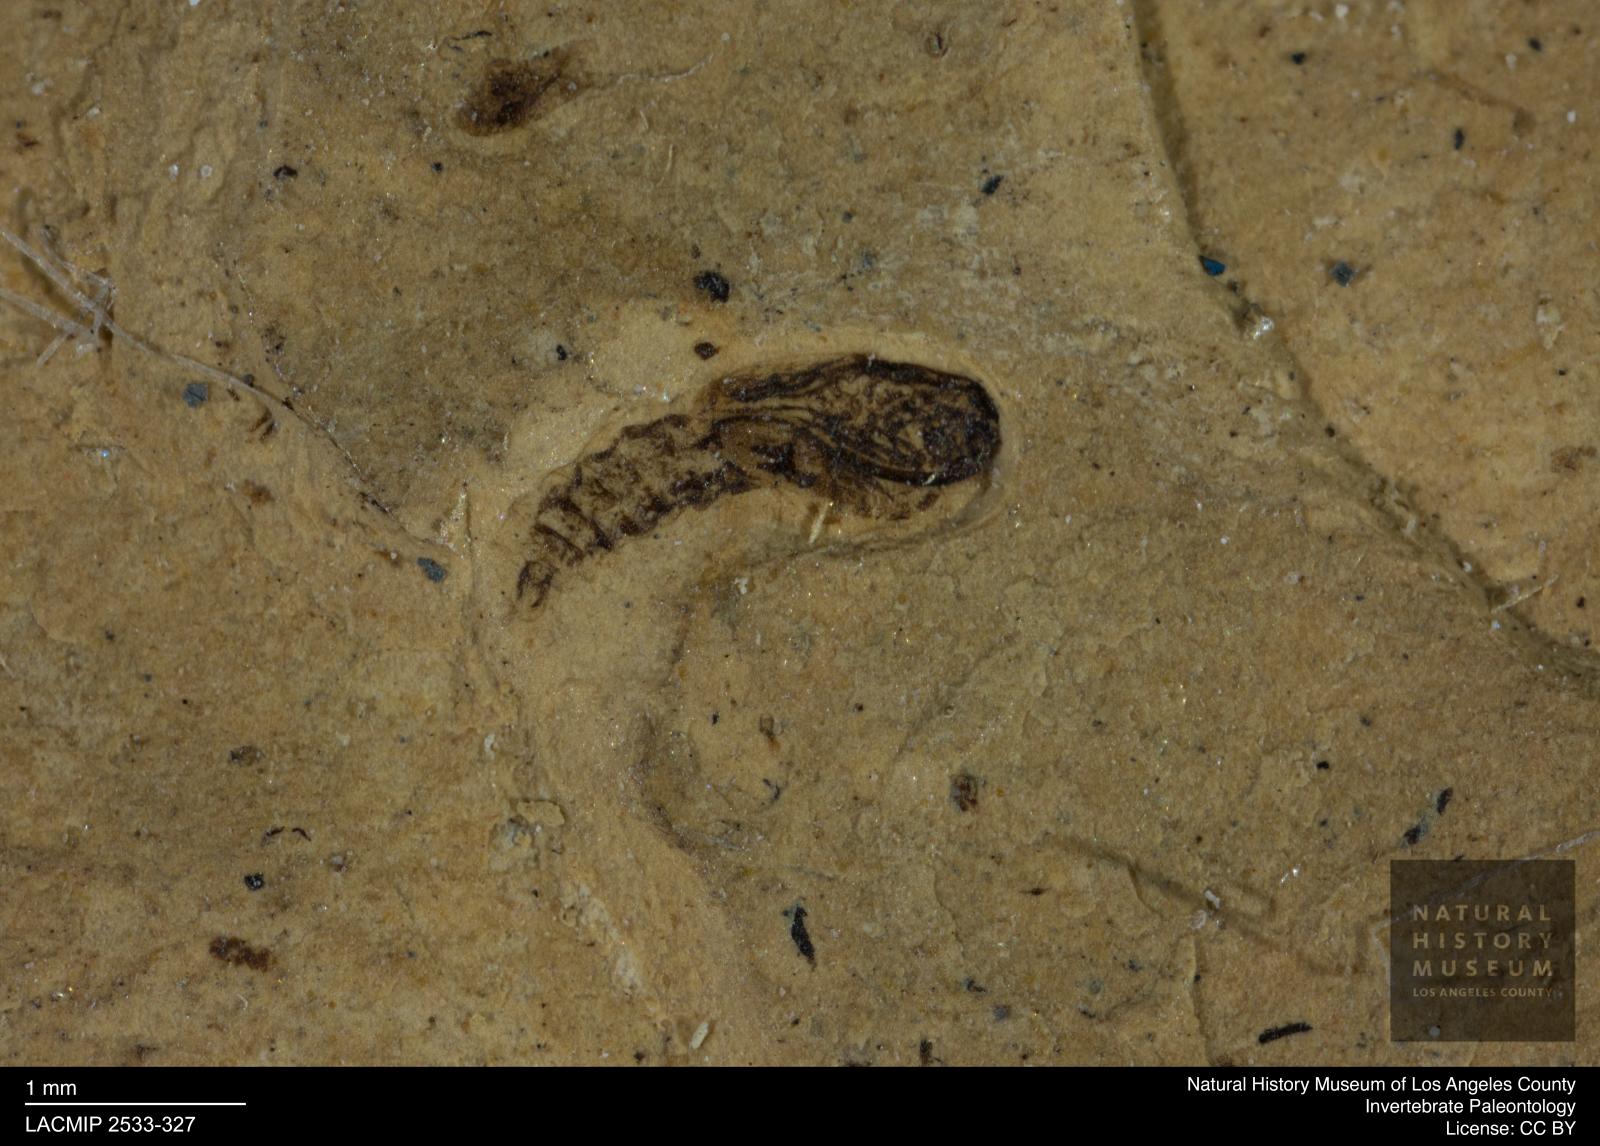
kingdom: Animalia
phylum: Arthropoda
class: Insecta
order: Diptera
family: Ceratopogonidae
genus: Ceratopogon
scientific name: Ceratopogon
